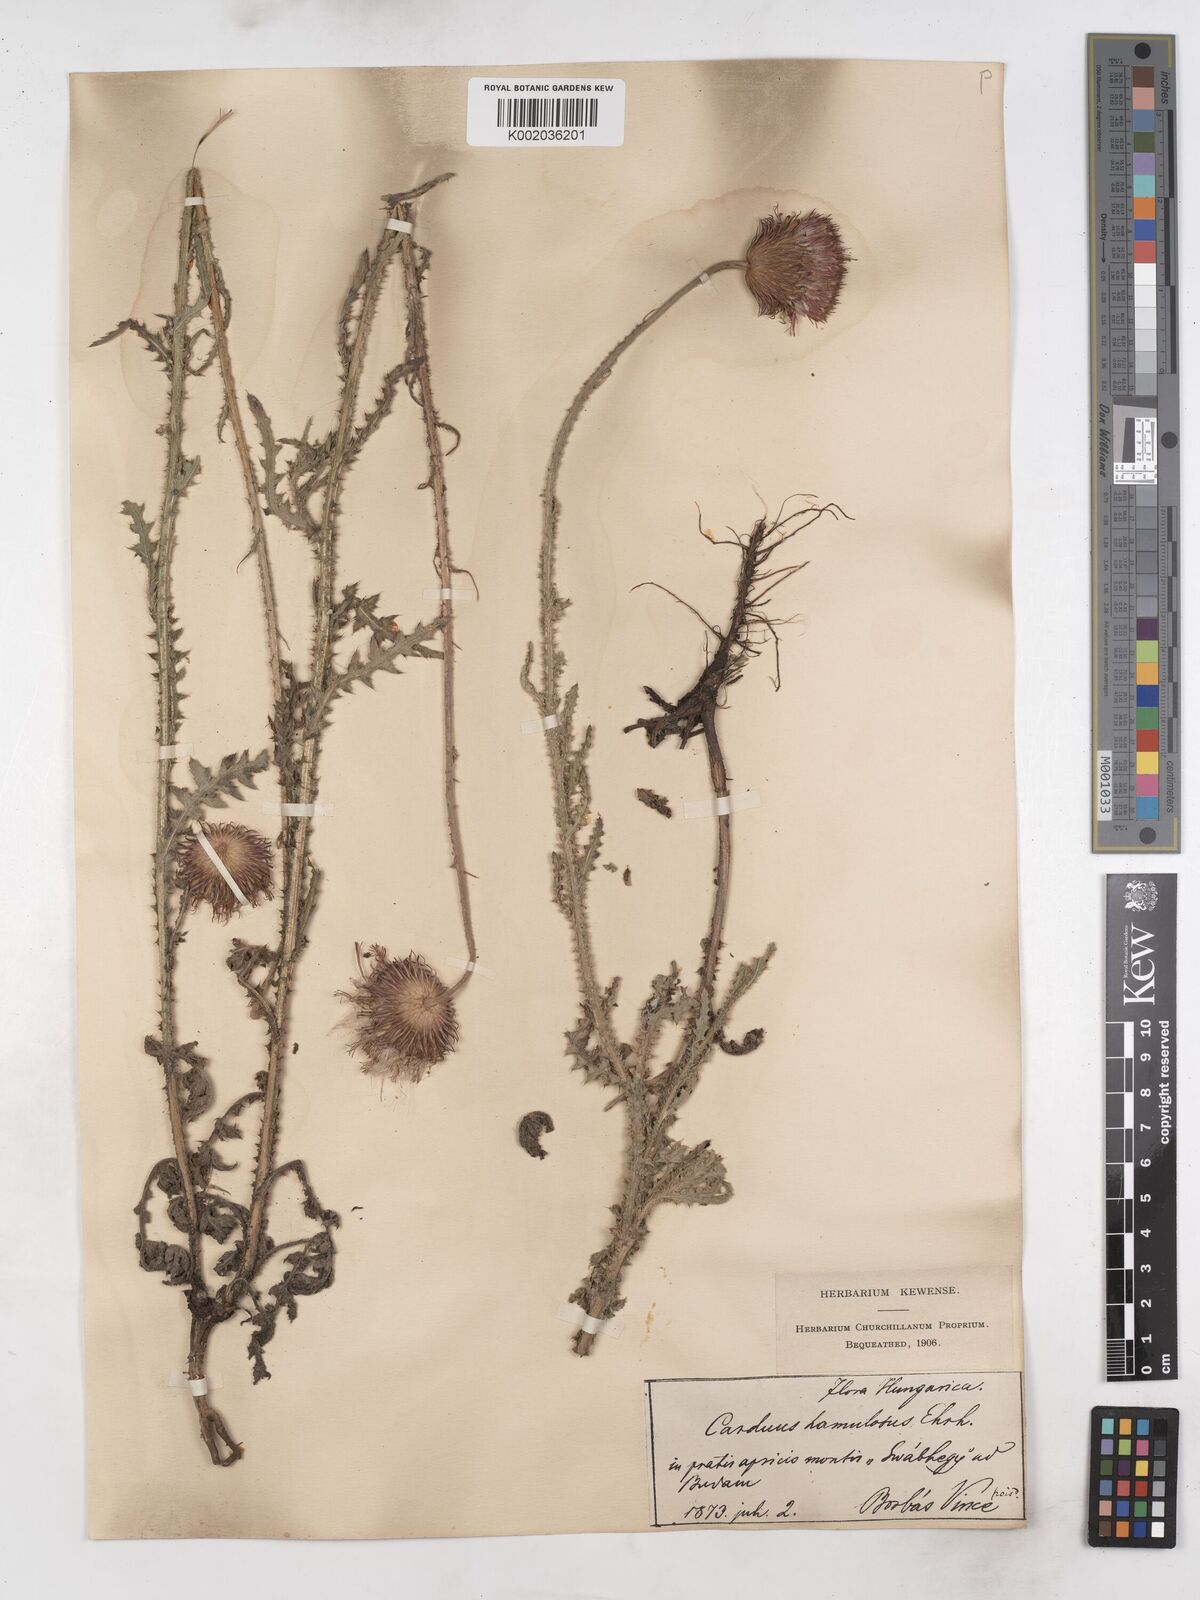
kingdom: Plantae
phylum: Tracheophyta
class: Magnoliopsida
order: Asterales
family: Asteraceae
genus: Carduus
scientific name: Carduus hamulosus
